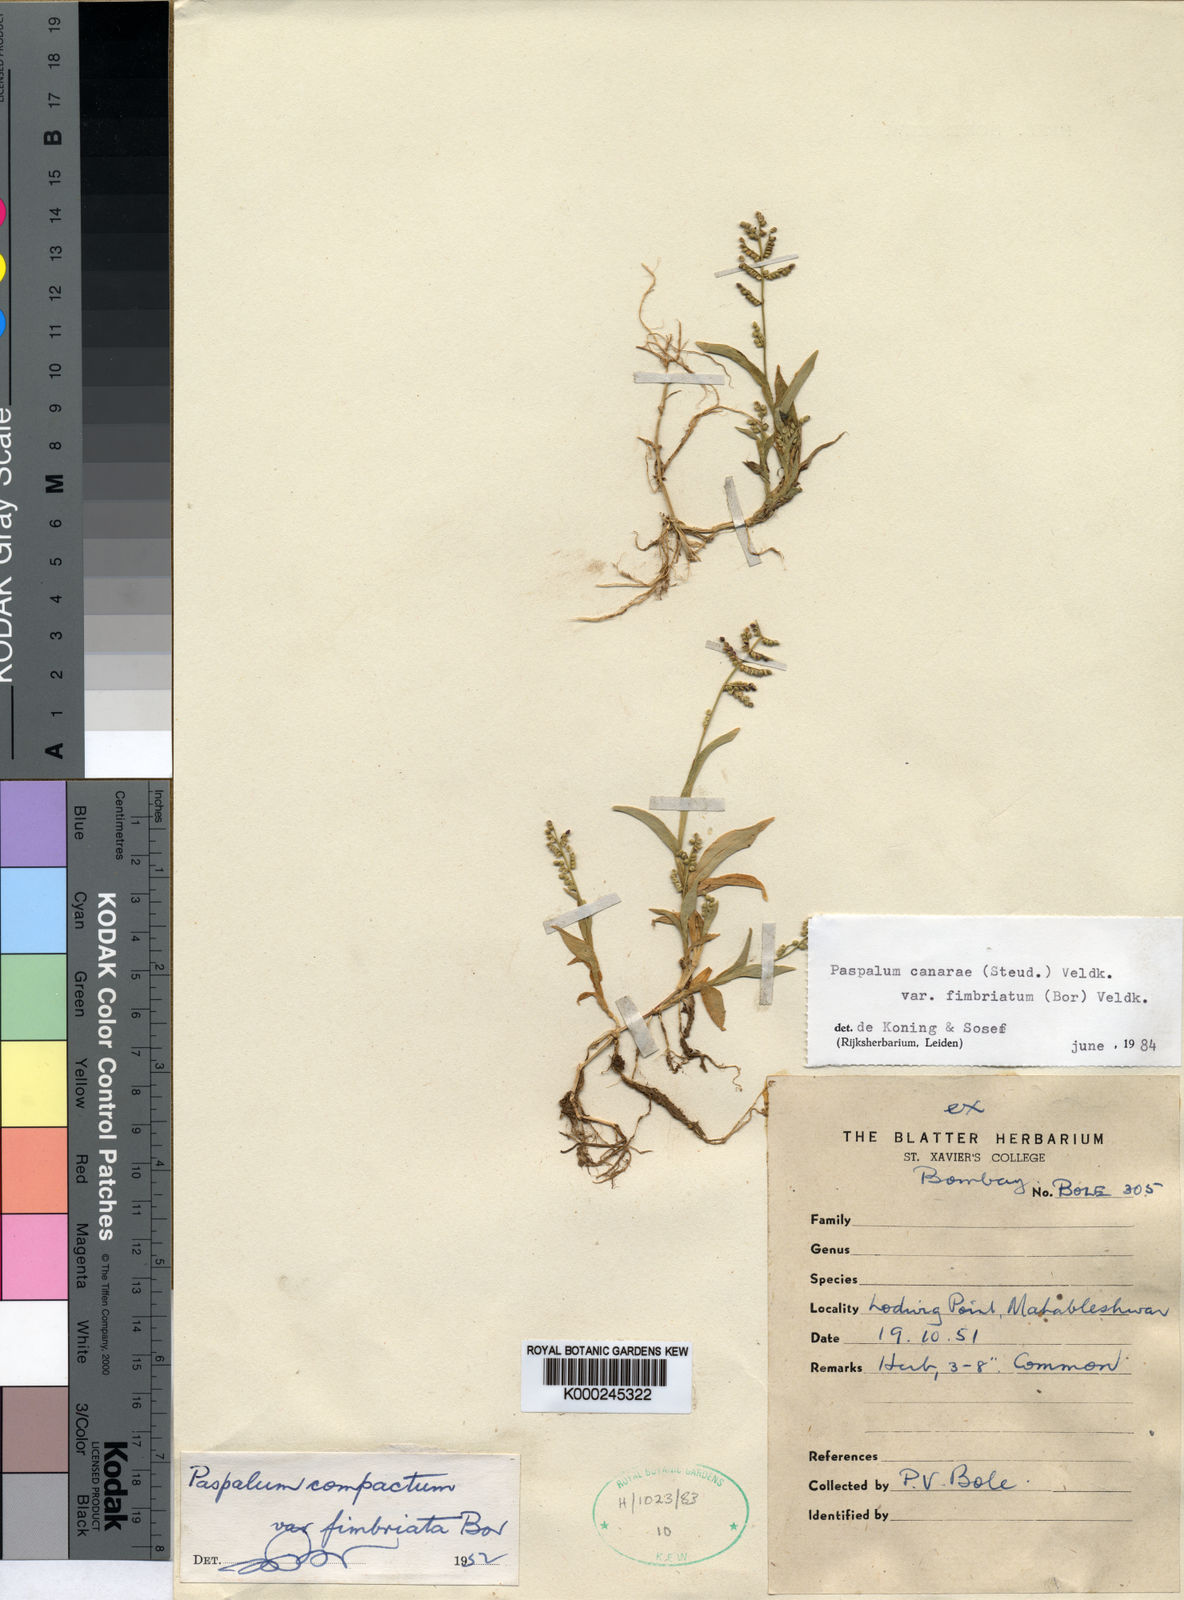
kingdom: Plantae
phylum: Tracheophyta
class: Liliopsida
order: Poales
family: Poaceae
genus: Paspalum
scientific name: Paspalum canarae
